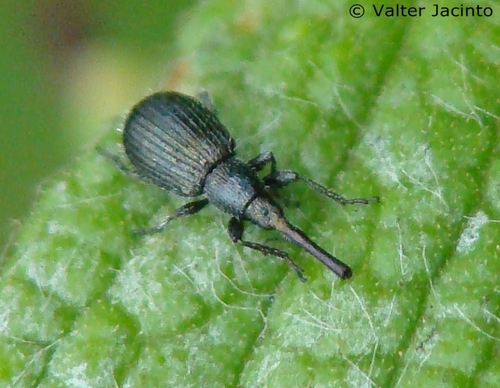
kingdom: Animalia
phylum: Arthropoda
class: Insecta
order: Coleoptera
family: Apionidae
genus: Phrissotrichum
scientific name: Phrissotrichum tubiferum
